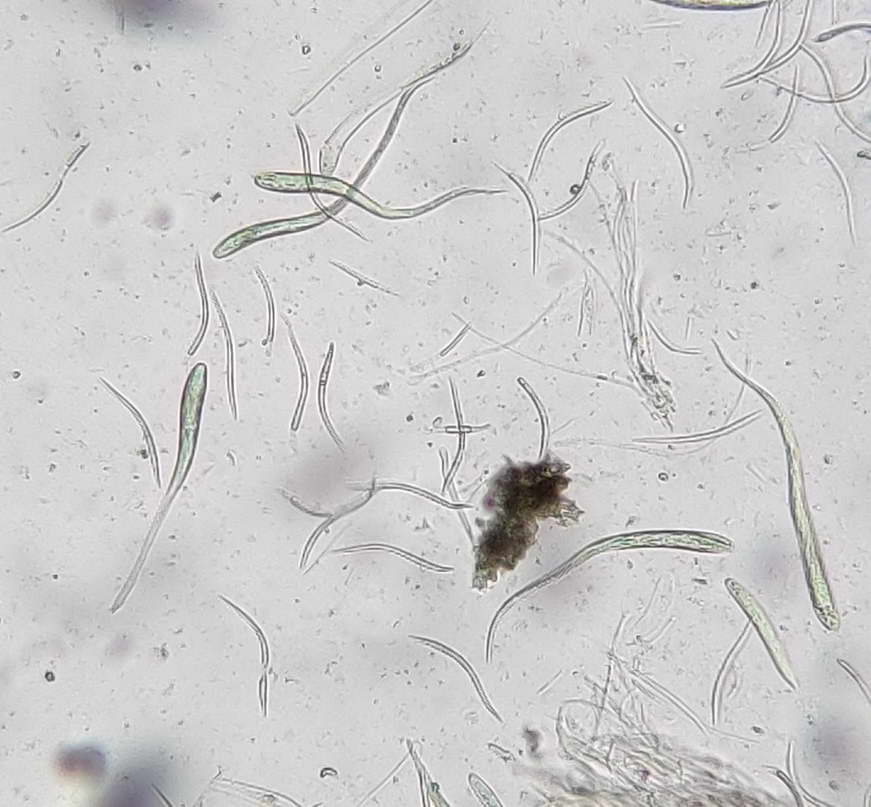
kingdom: Fungi
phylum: Ascomycota
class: Leotiomycetes
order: Rhytismatales
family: Rhytismataceae
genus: Therrya
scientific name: Therrya pini
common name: fyrre-tandskive
